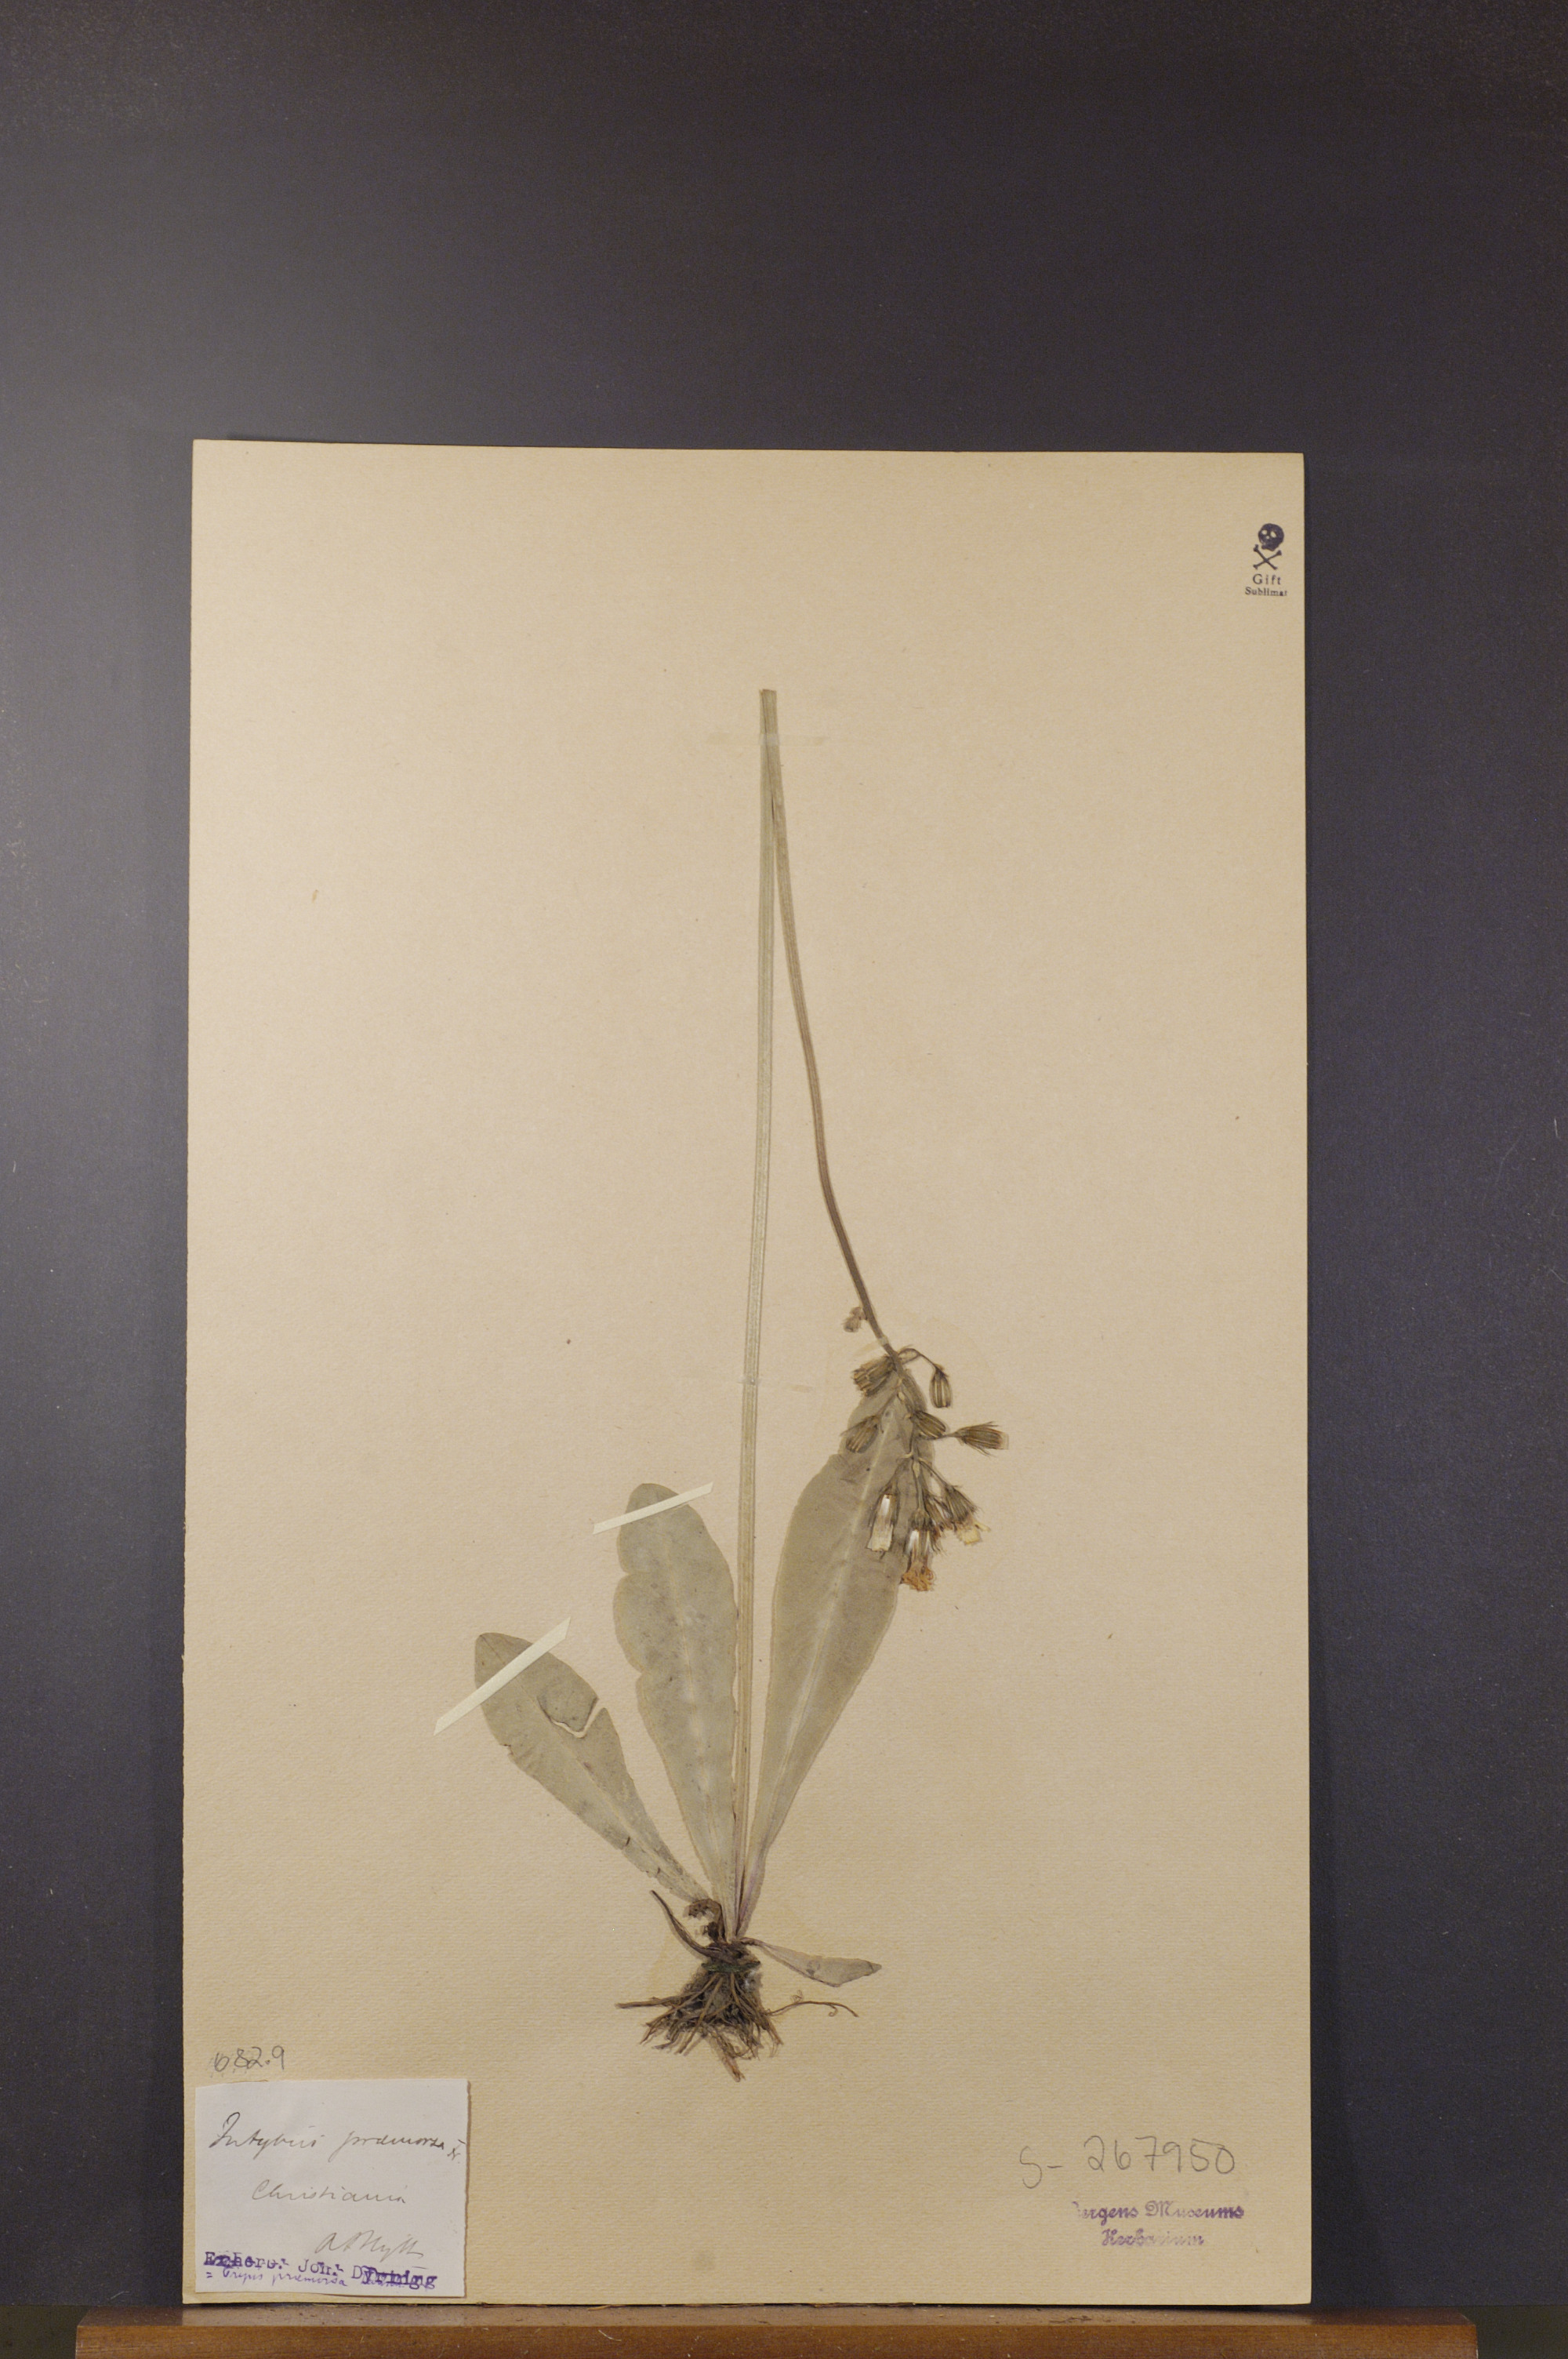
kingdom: Plantae
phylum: Tracheophyta
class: Magnoliopsida
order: Asterales
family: Asteraceae
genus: Crepis
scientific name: Crepis praemorsa
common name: Leafless hawk's-beard
